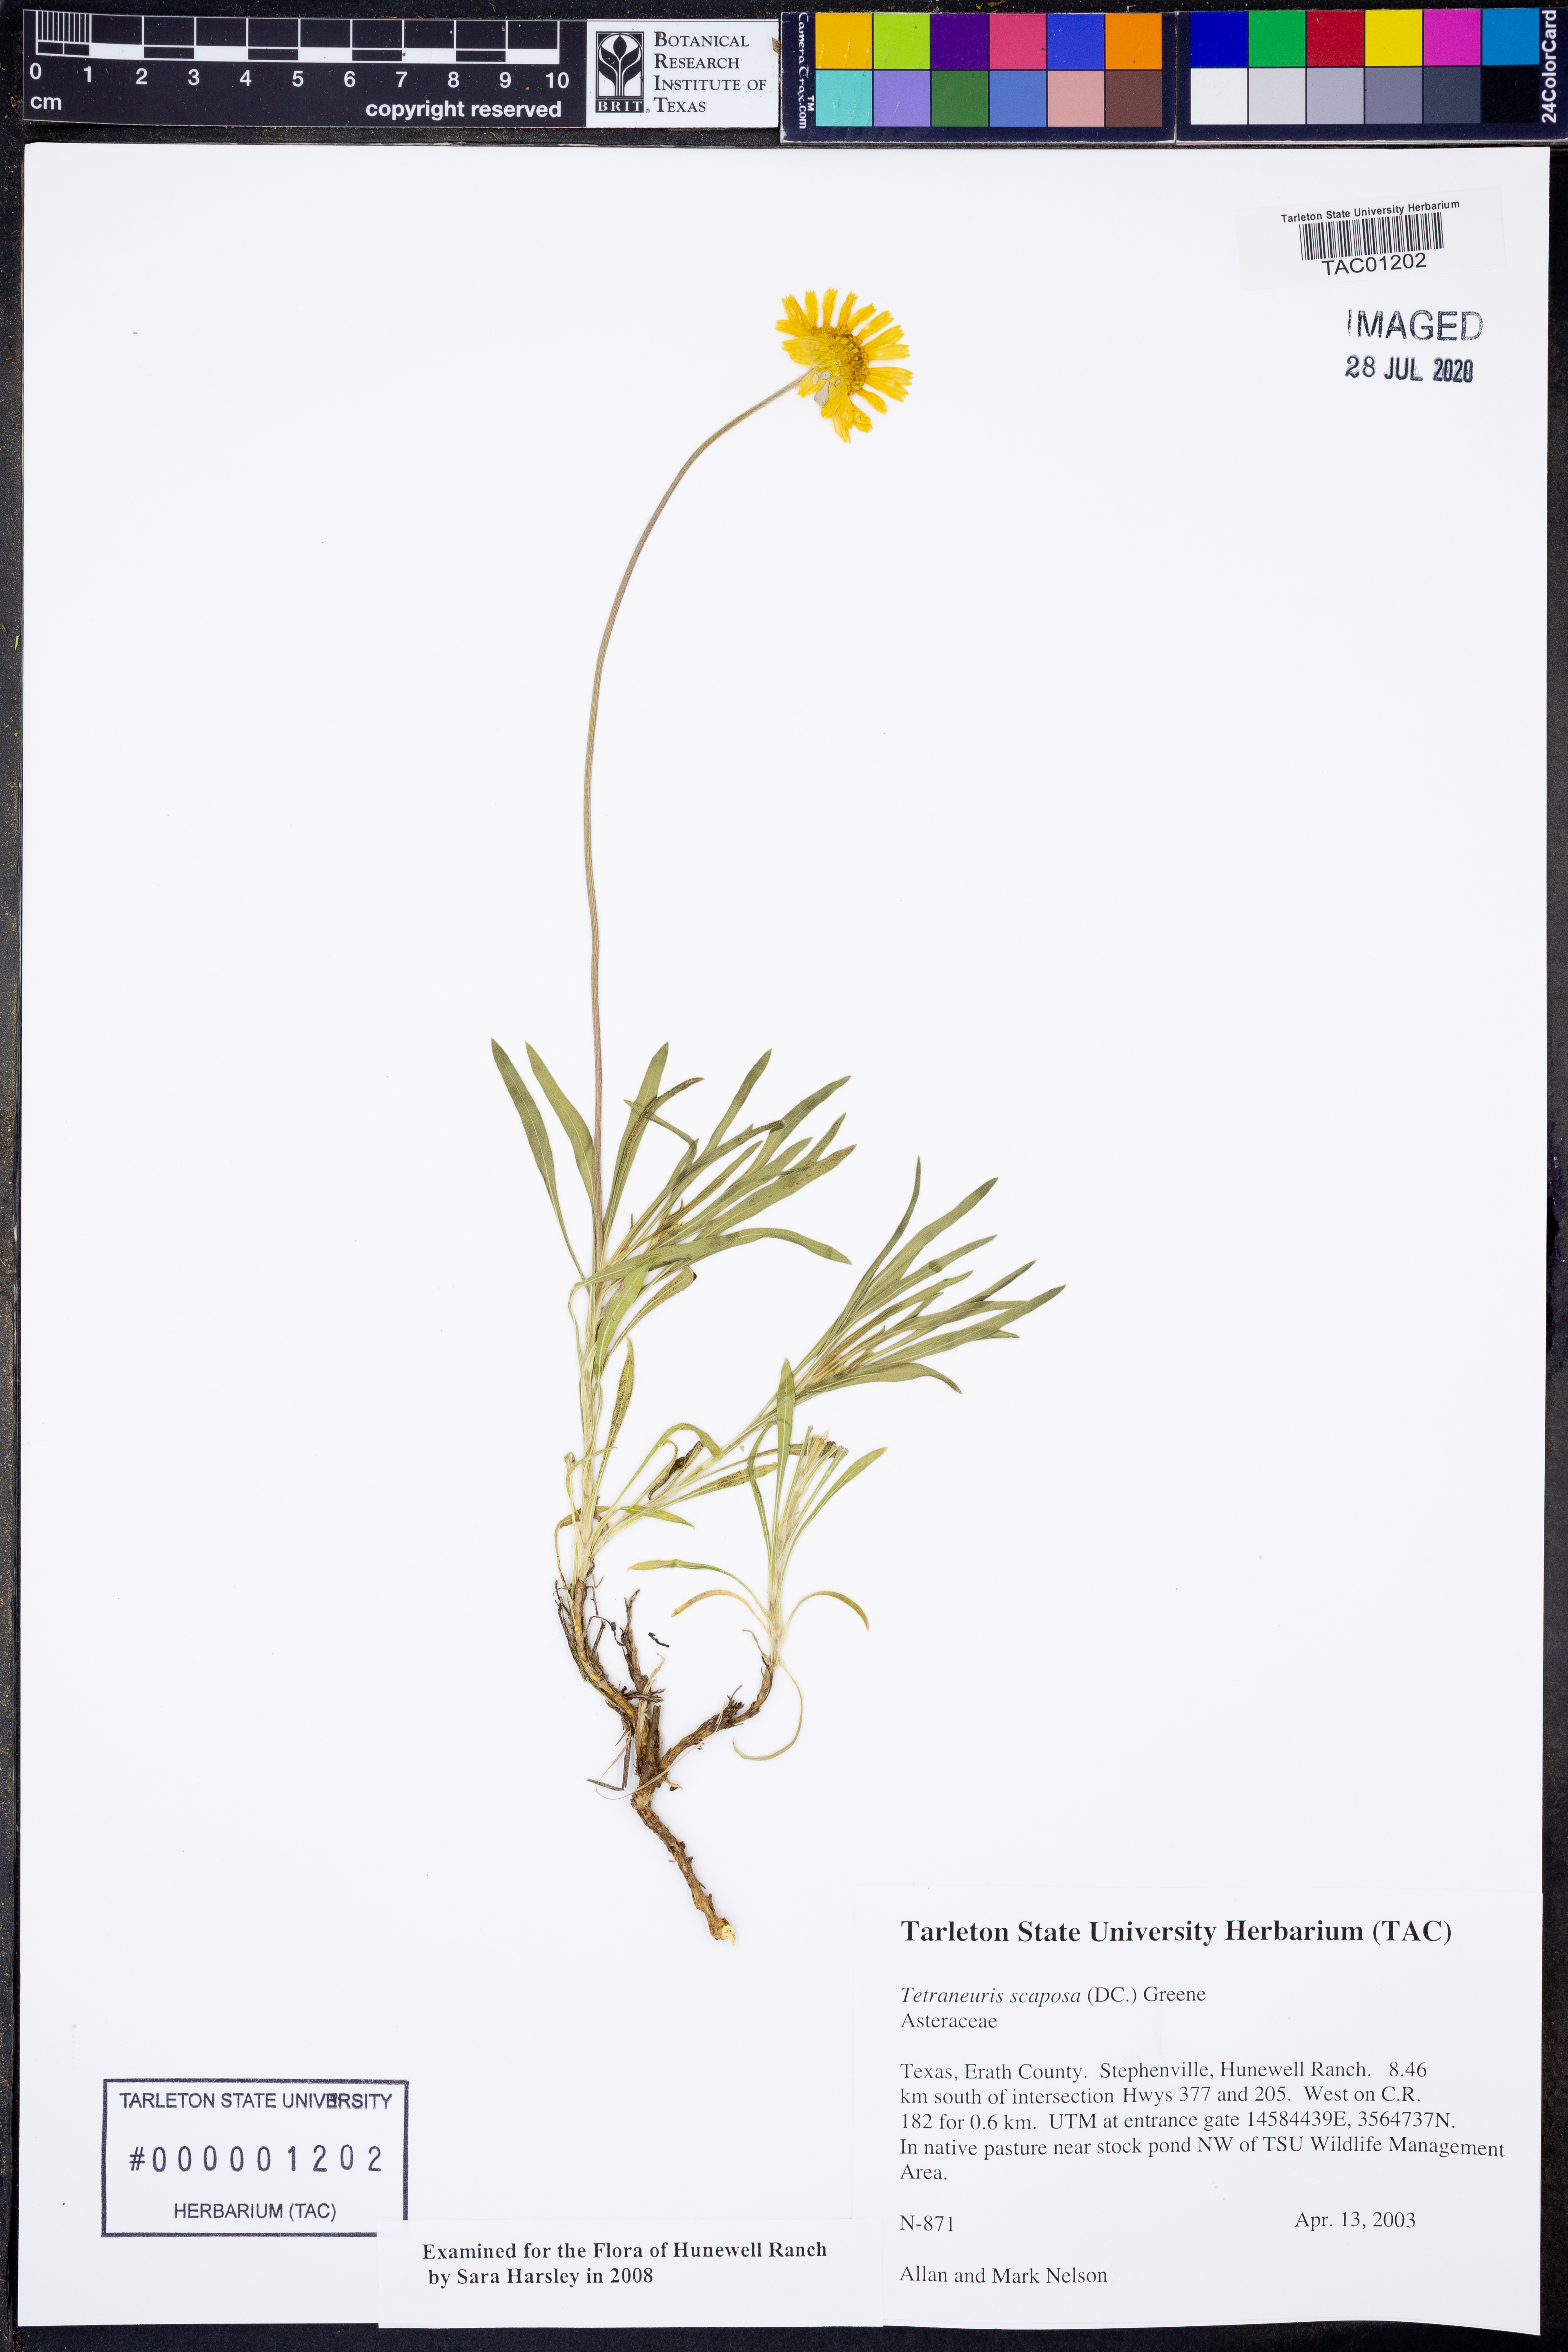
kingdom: Plantae
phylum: Tracheophyta
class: Magnoliopsida
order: Asterales
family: Asteraceae
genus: Tetraneuris
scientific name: Tetraneuris scaposa
